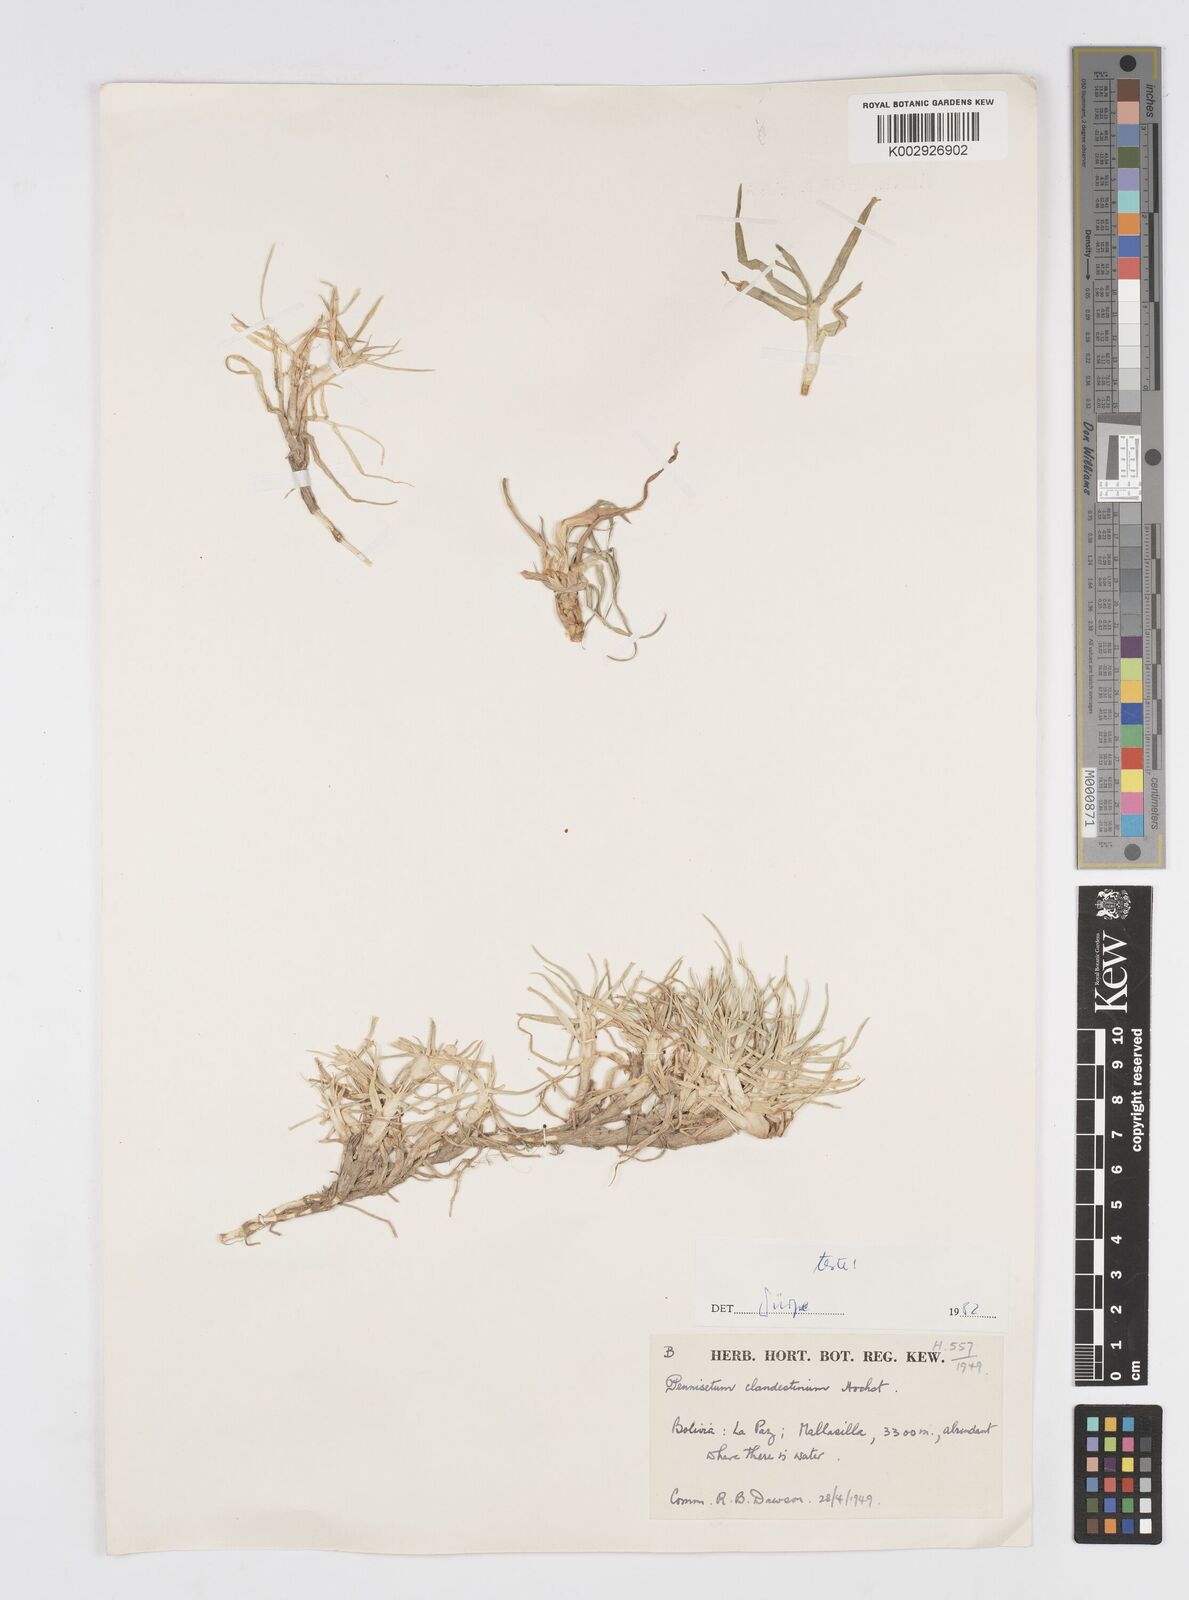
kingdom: Plantae
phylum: Tracheophyta
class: Liliopsida
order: Poales
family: Poaceae
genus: Cenchrus
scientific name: Cenchrus clandestinus
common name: Kikuyugrass
